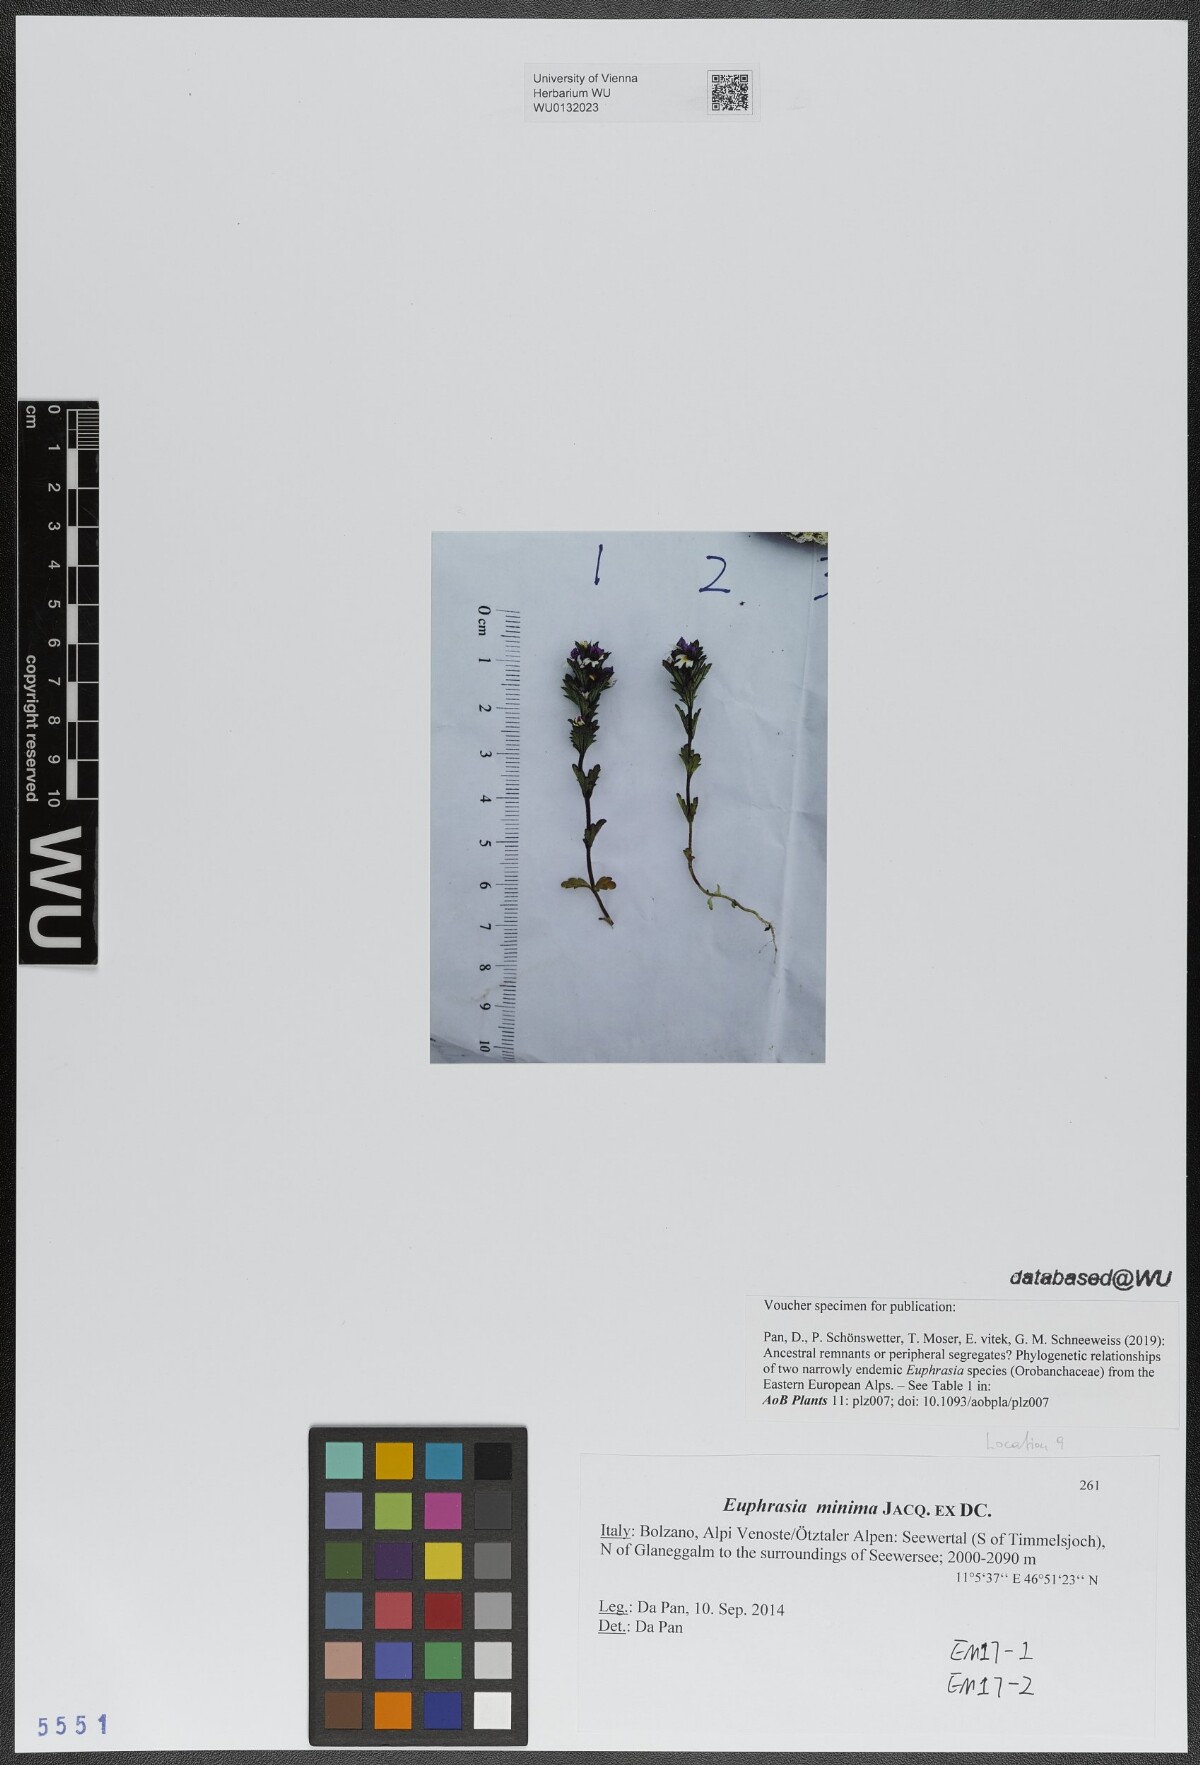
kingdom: Plantae
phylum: Tracheophyta
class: Magnoliopsida
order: Lamiales
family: Orobanchaceae
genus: Euphrasia
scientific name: Euphrasia minima
